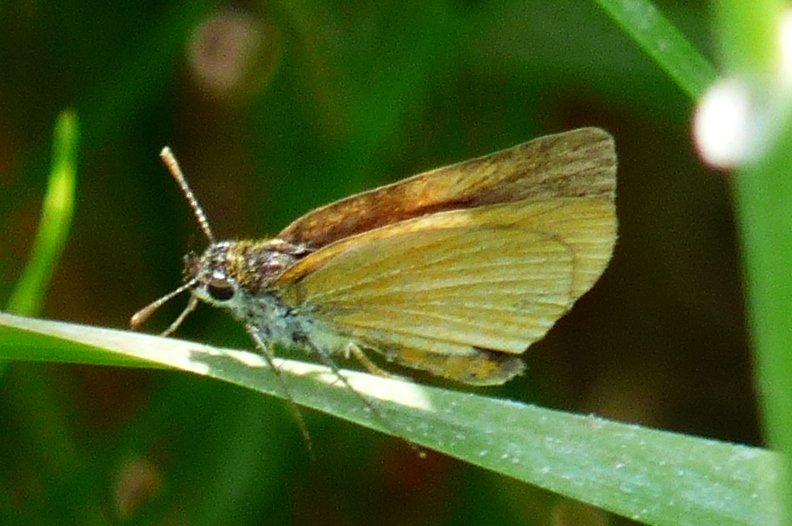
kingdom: Animalia
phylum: Arthropoda
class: Insecta
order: Lepidoptera
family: Hesperiidae
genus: Euphyes
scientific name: Euphyes bimacula
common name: Two-spotted Skipper
